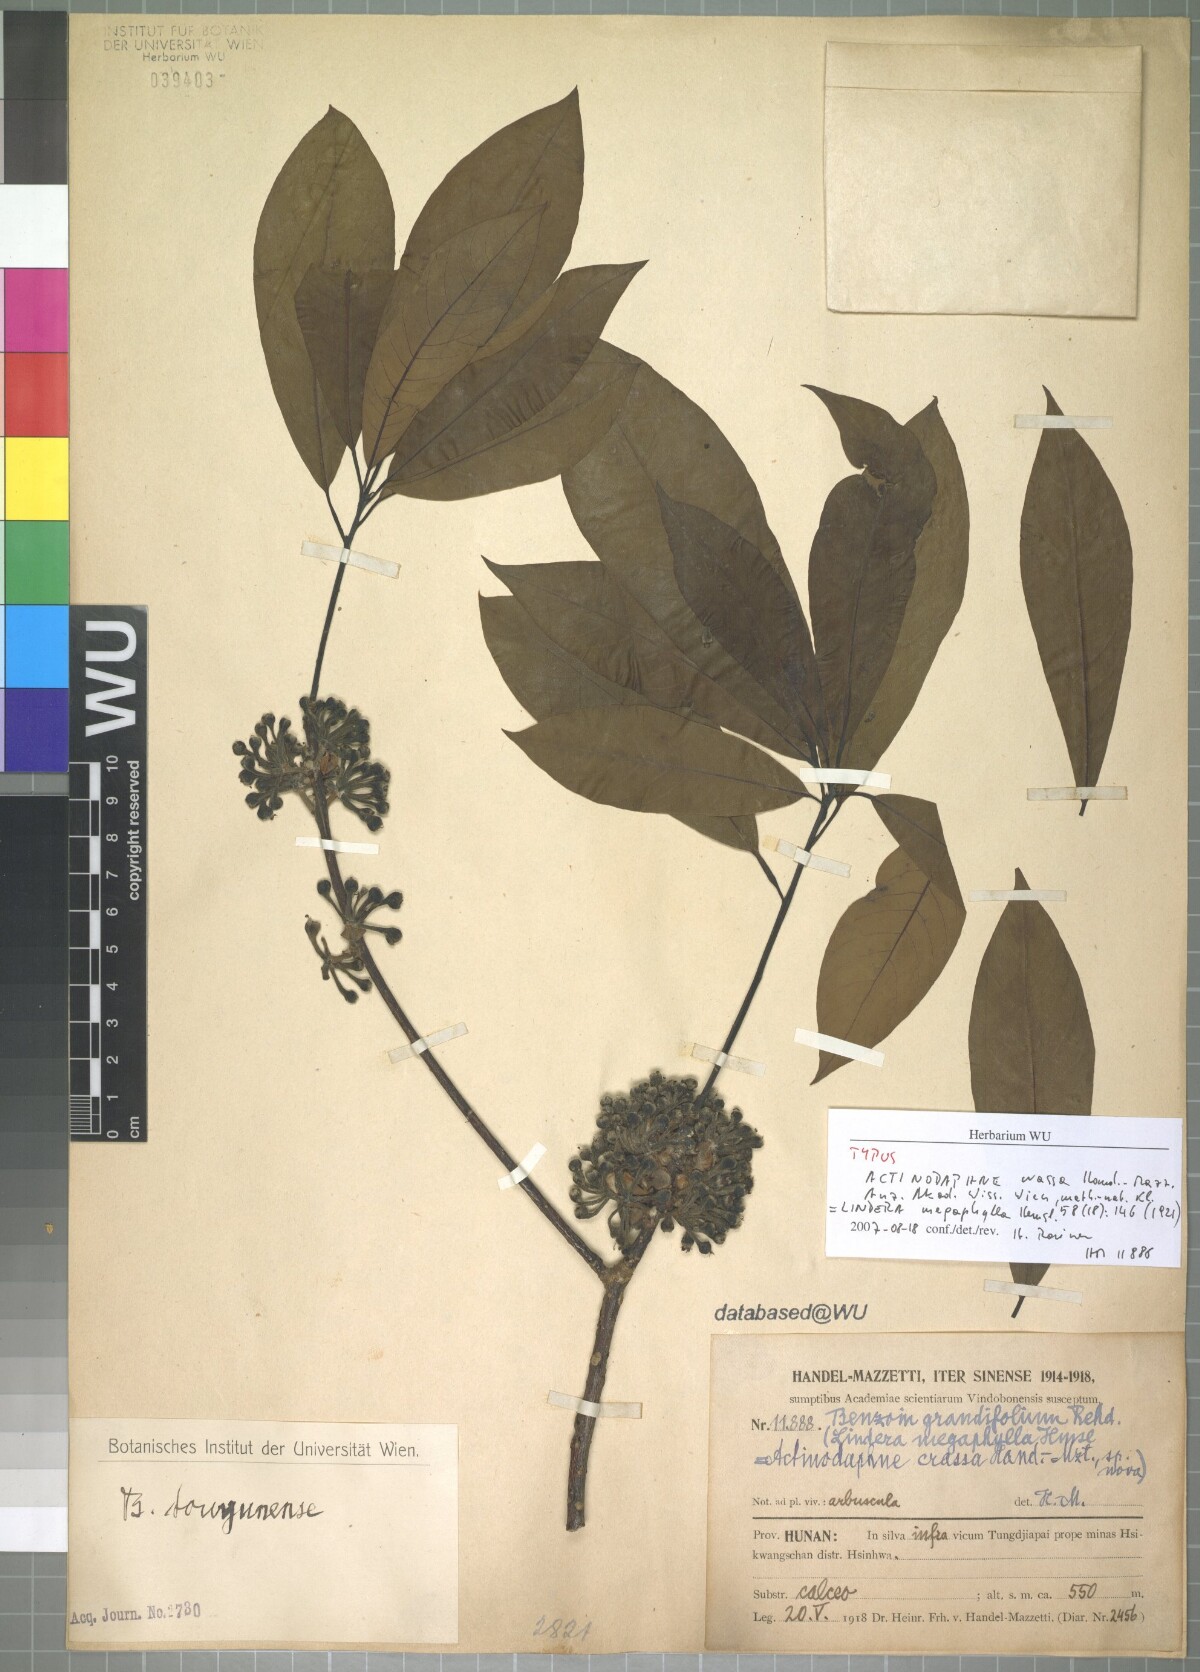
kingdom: Plantae
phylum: Tracheophyta
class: Magnoliopsida
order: Laurales
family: Lauraceae
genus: Lindera
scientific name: Lindera megaphylla
